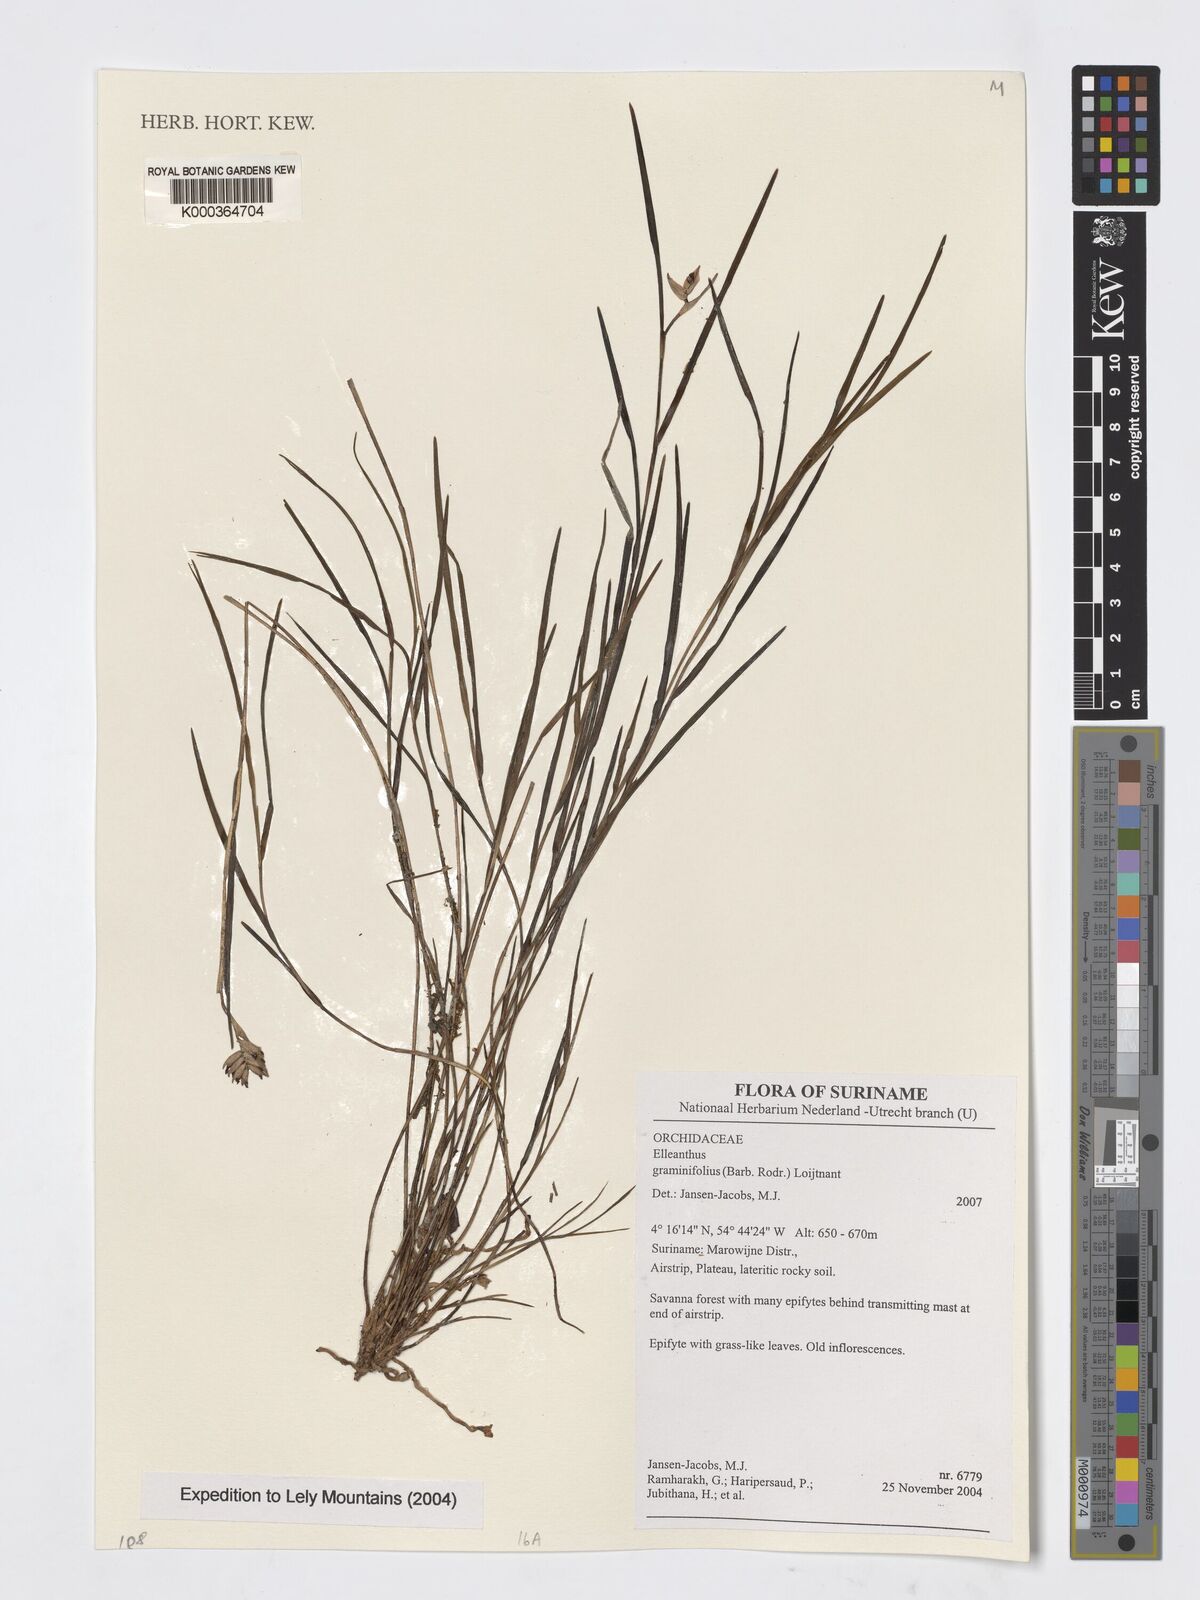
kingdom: Plantae
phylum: Tracheophyta
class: Liliopsida
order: Asparagales
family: Orchidaceae
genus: Elleanthus
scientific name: Elleanthus
